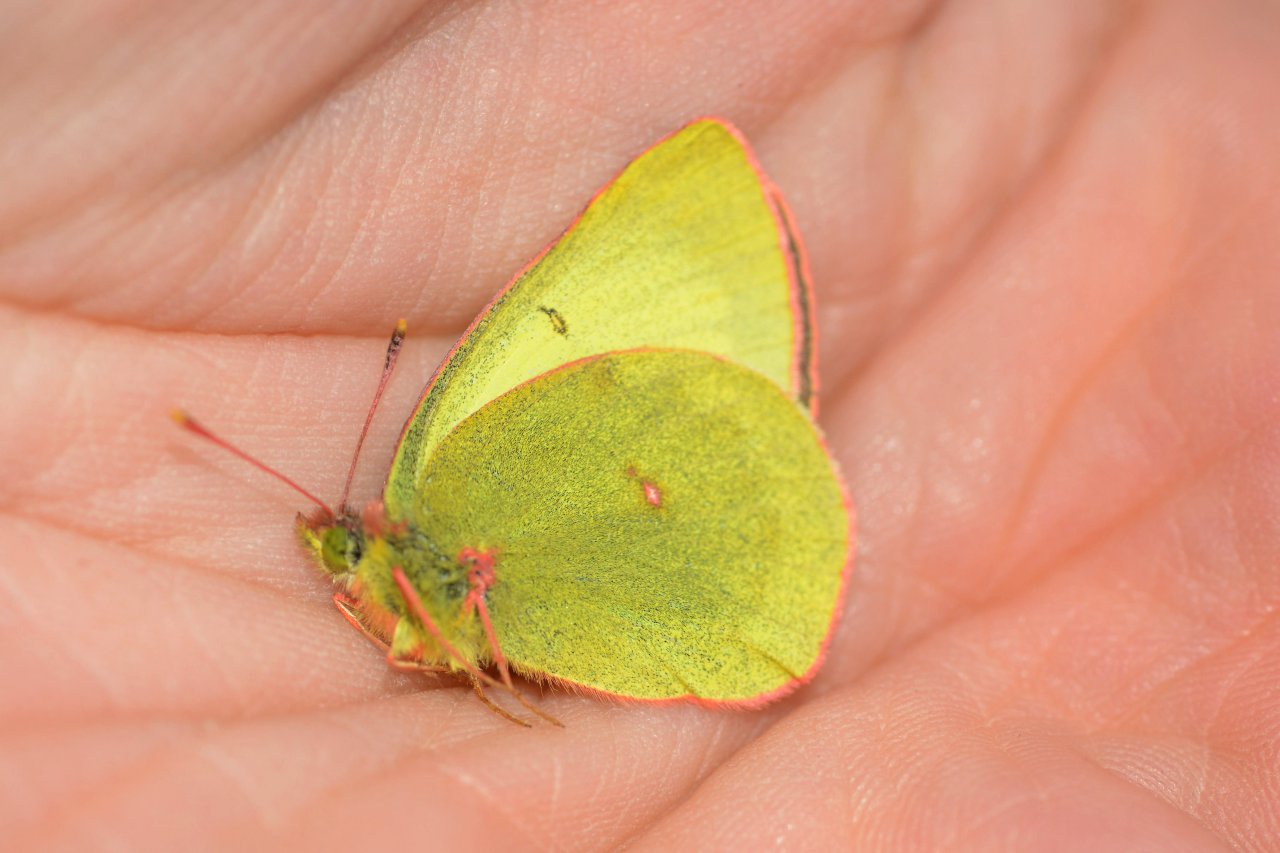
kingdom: Animalia
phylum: Arthropoda
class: Insecta
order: Lepidoptera
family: Pieridae
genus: Colias
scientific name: Colias palaeno
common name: Chippewa Sulphur
